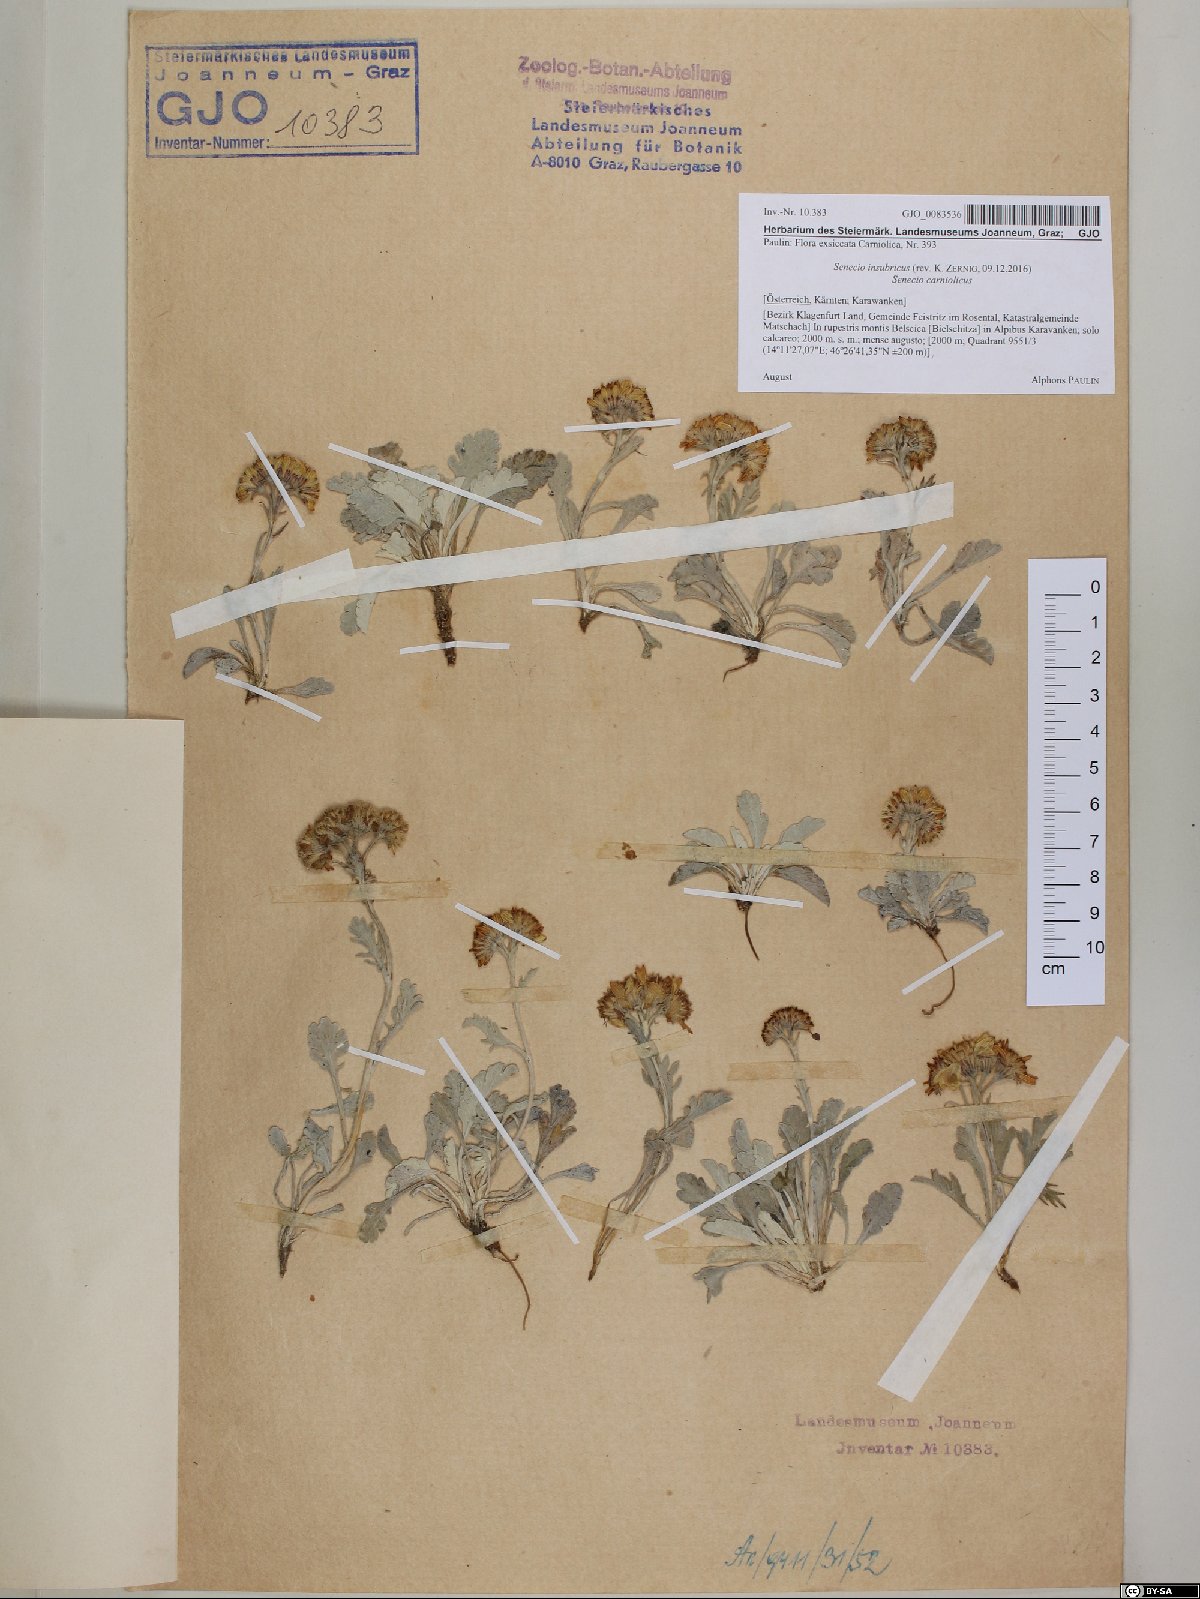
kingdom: Plantae
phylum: Tracheophyta
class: Magnoliopsida
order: Asterales
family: Asteraceae
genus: Jacobaea
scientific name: Jacobaea insubrica
